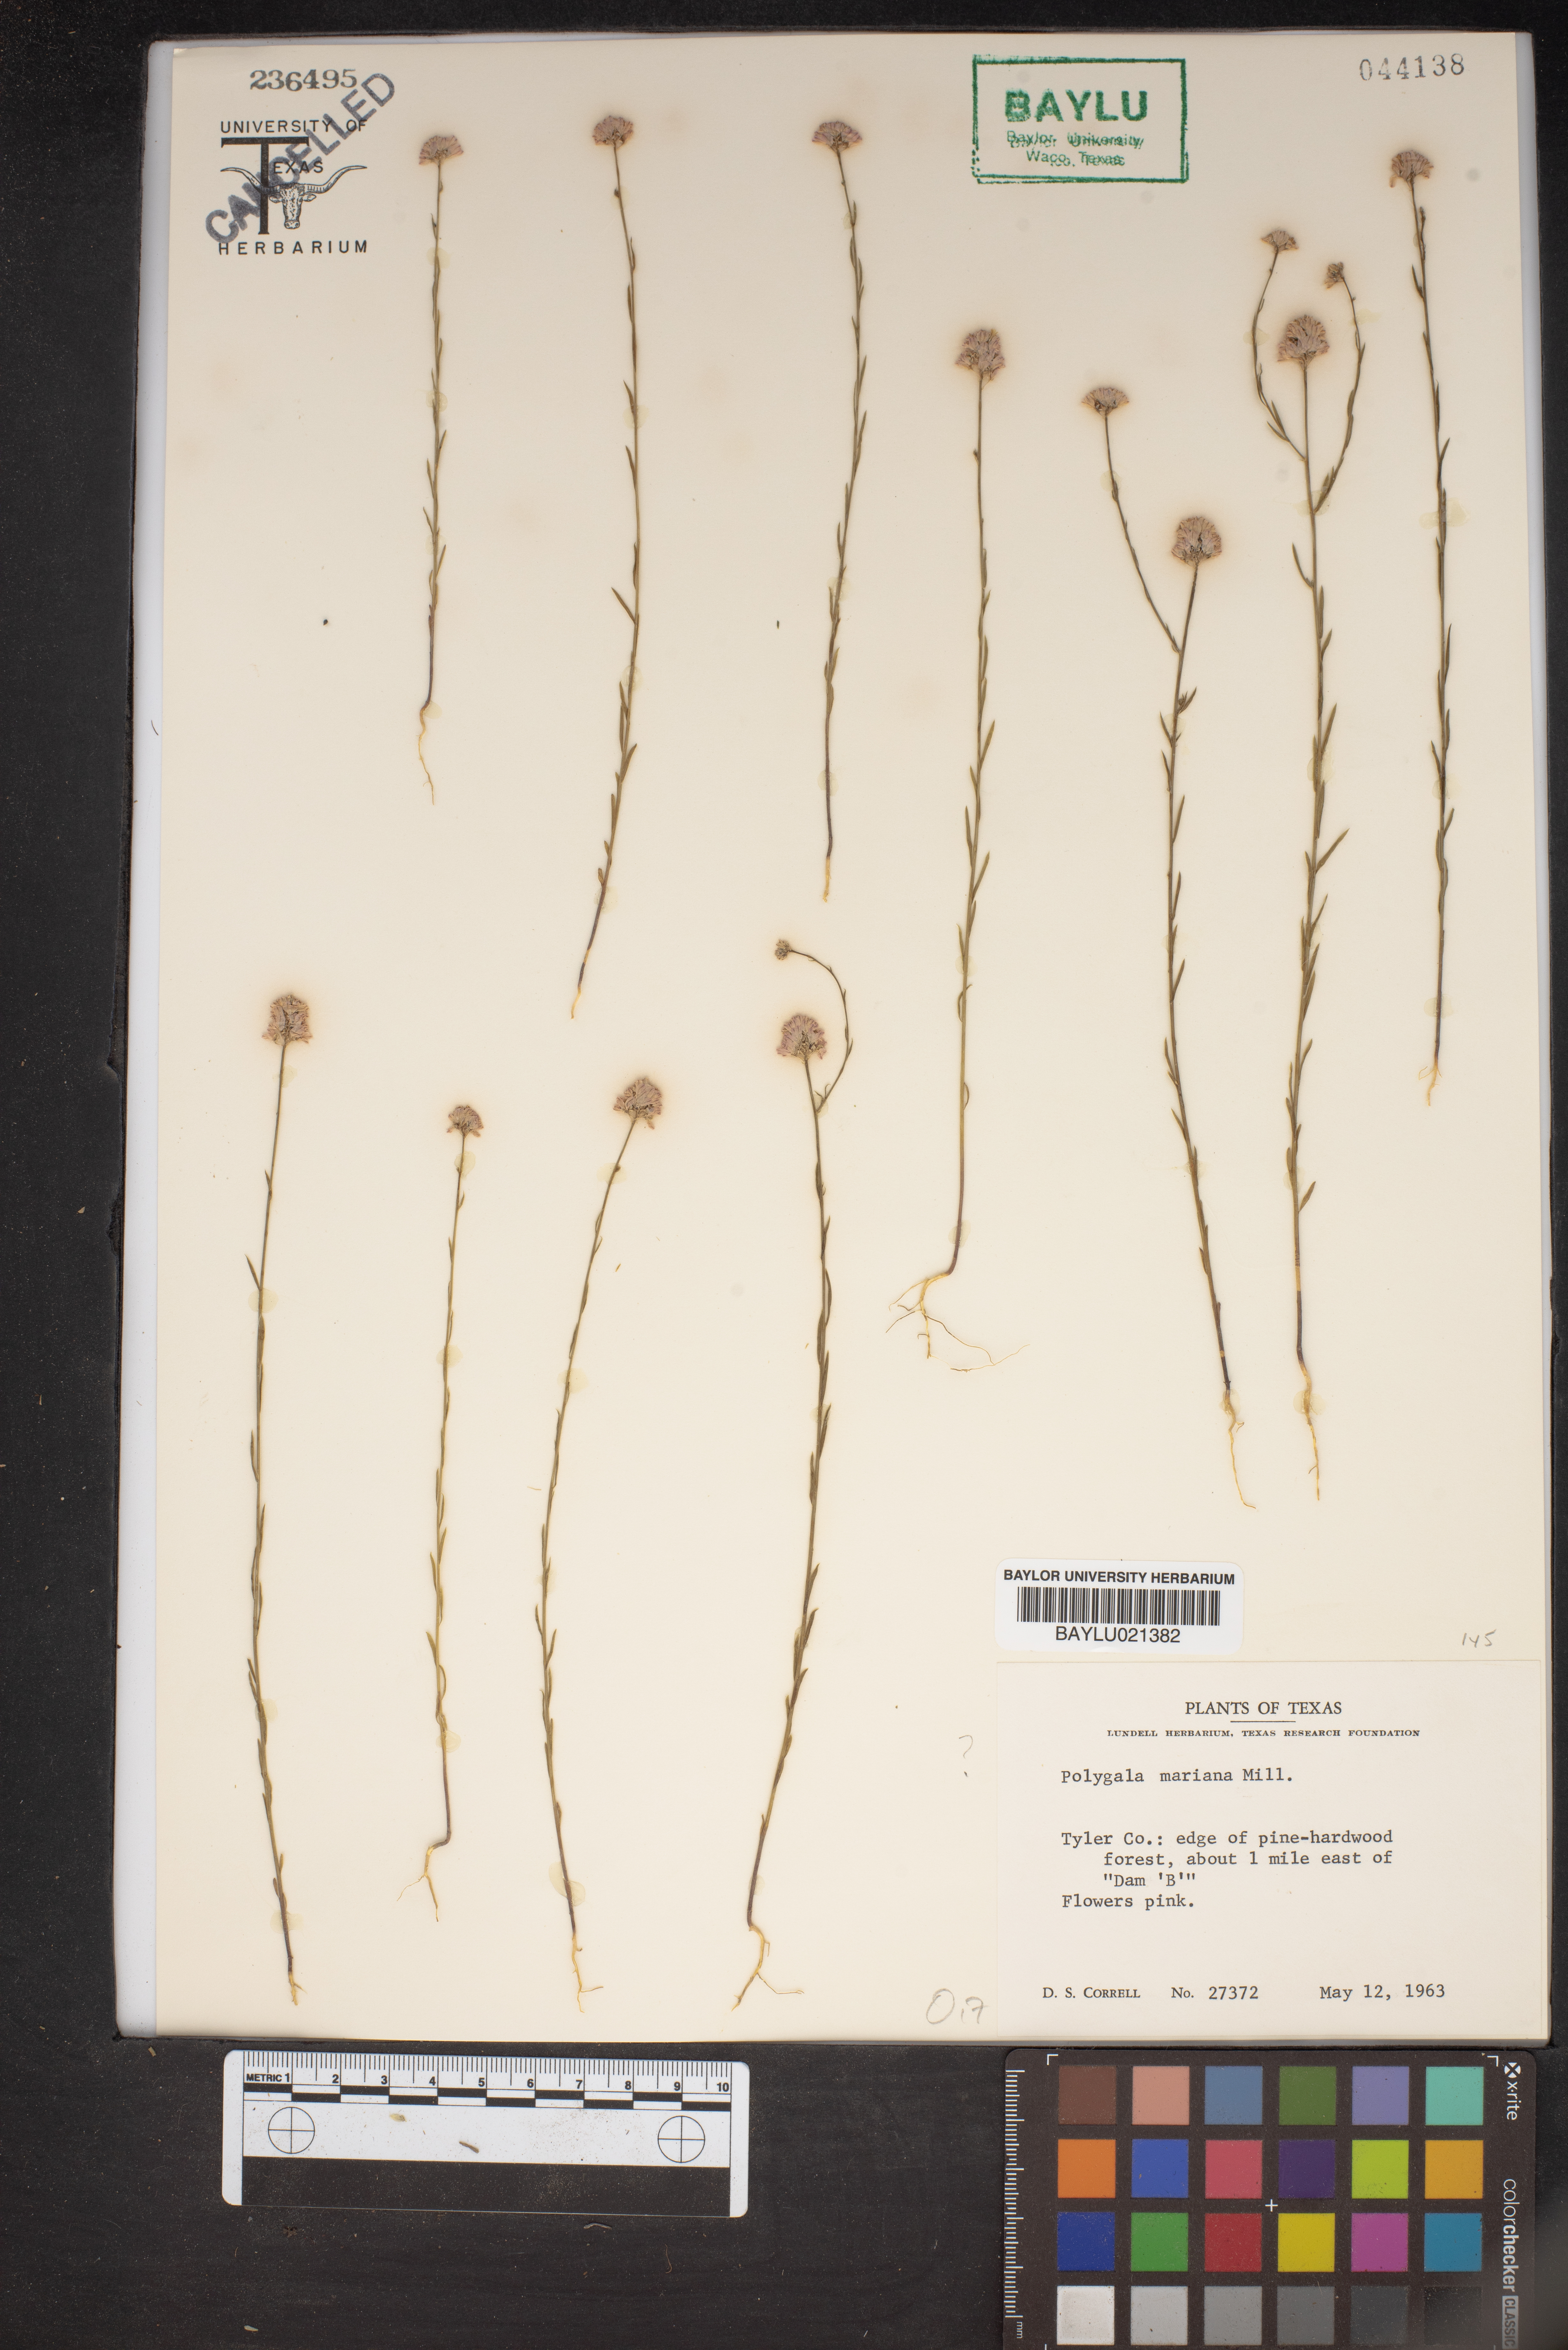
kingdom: Plantae
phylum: Tracheophyta
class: Magnoliopsida
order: Fabales
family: Polygalaceae
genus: Polygala
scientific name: Polygala mariana
